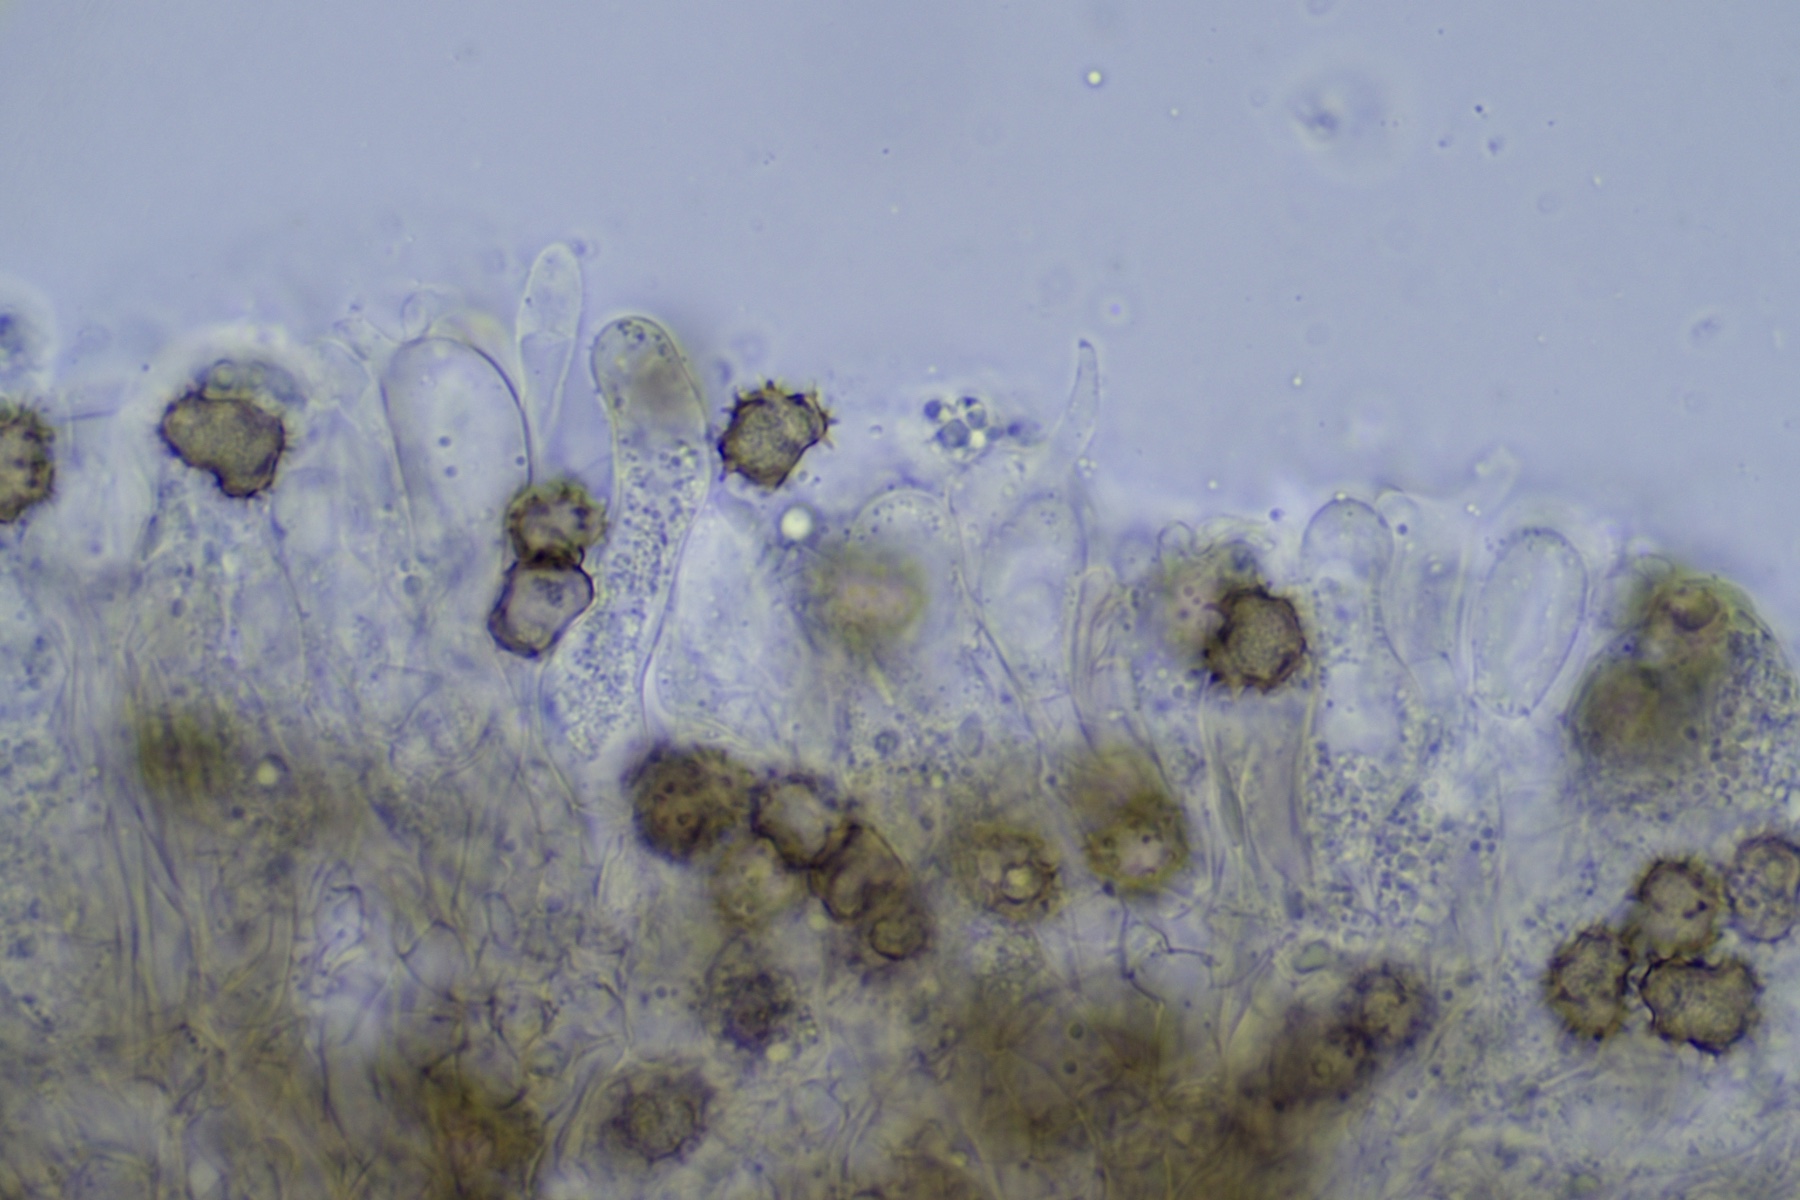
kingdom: Fungi
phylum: Basidiomycota
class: Agaricomycetes
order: Thelephorales
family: Thelephoraceae
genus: Tomentella
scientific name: Tomentella terrestris
